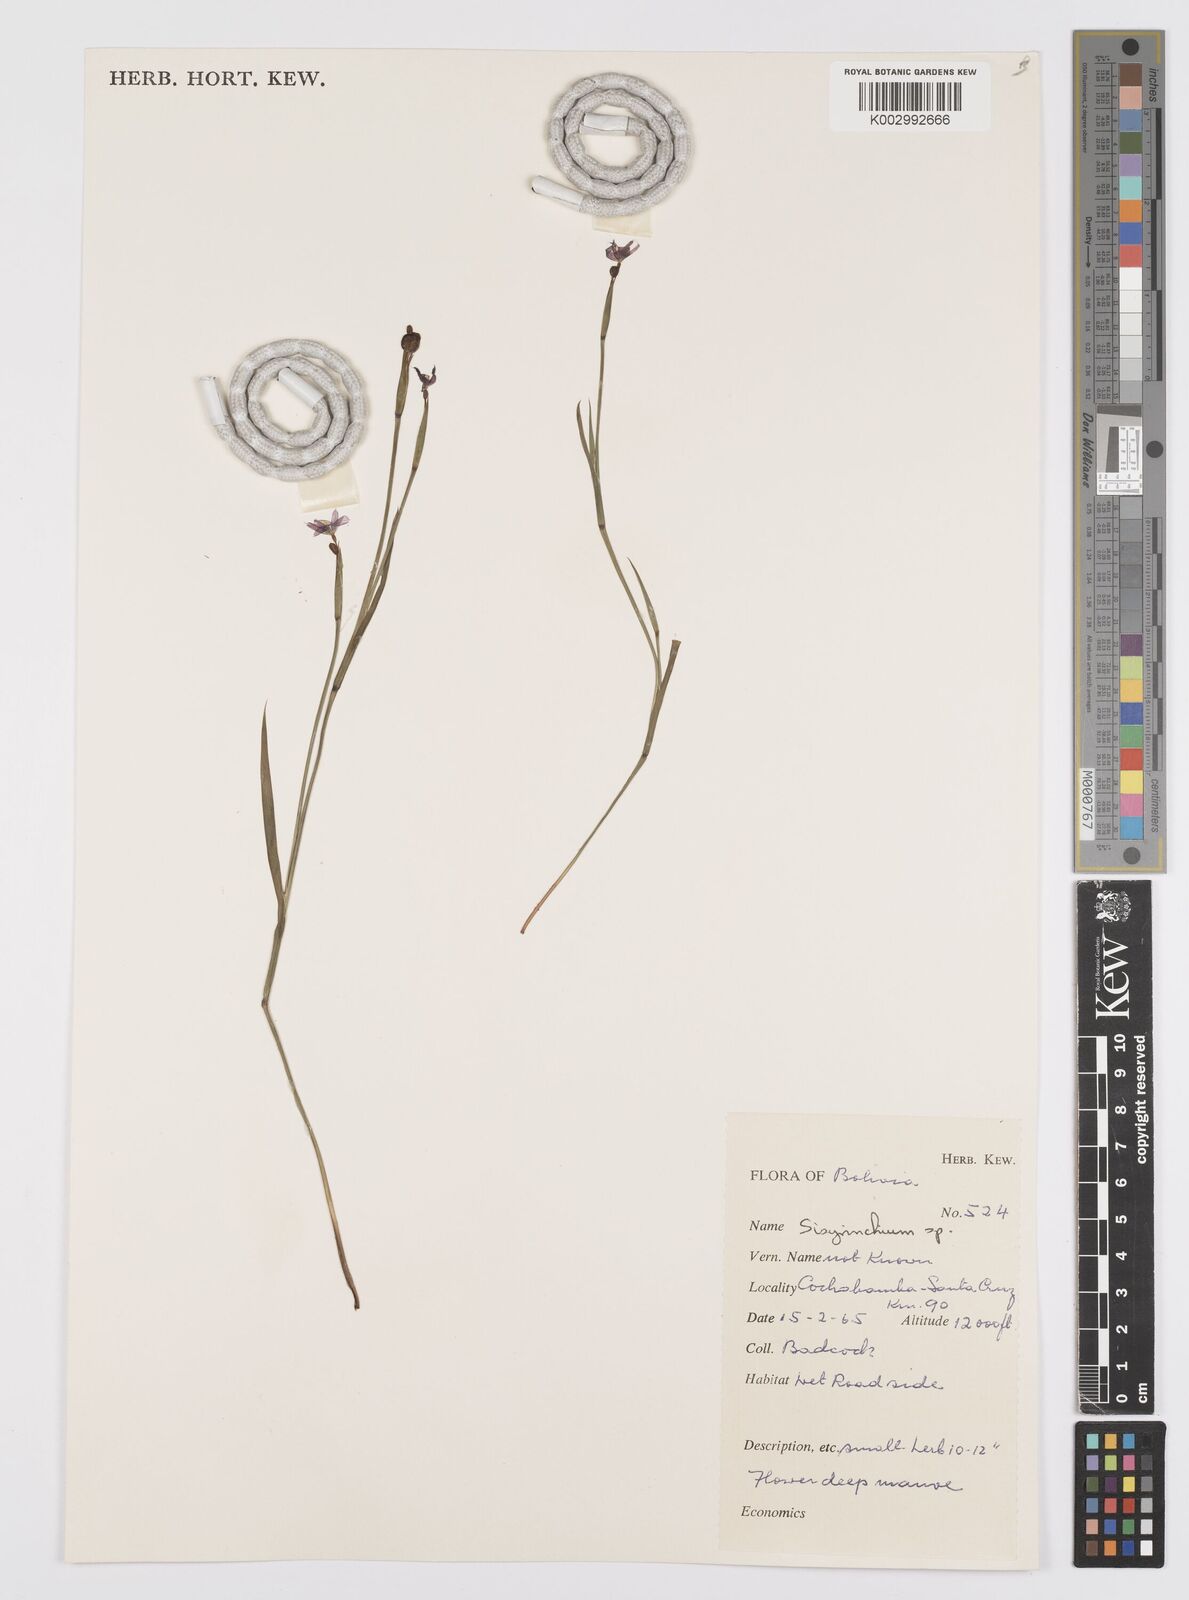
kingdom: Plantae
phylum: Tracheophyta
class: Liliopsida
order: Asparagales
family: Iridaceae
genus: Sisyrinchium
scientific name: Sisyrinchium
